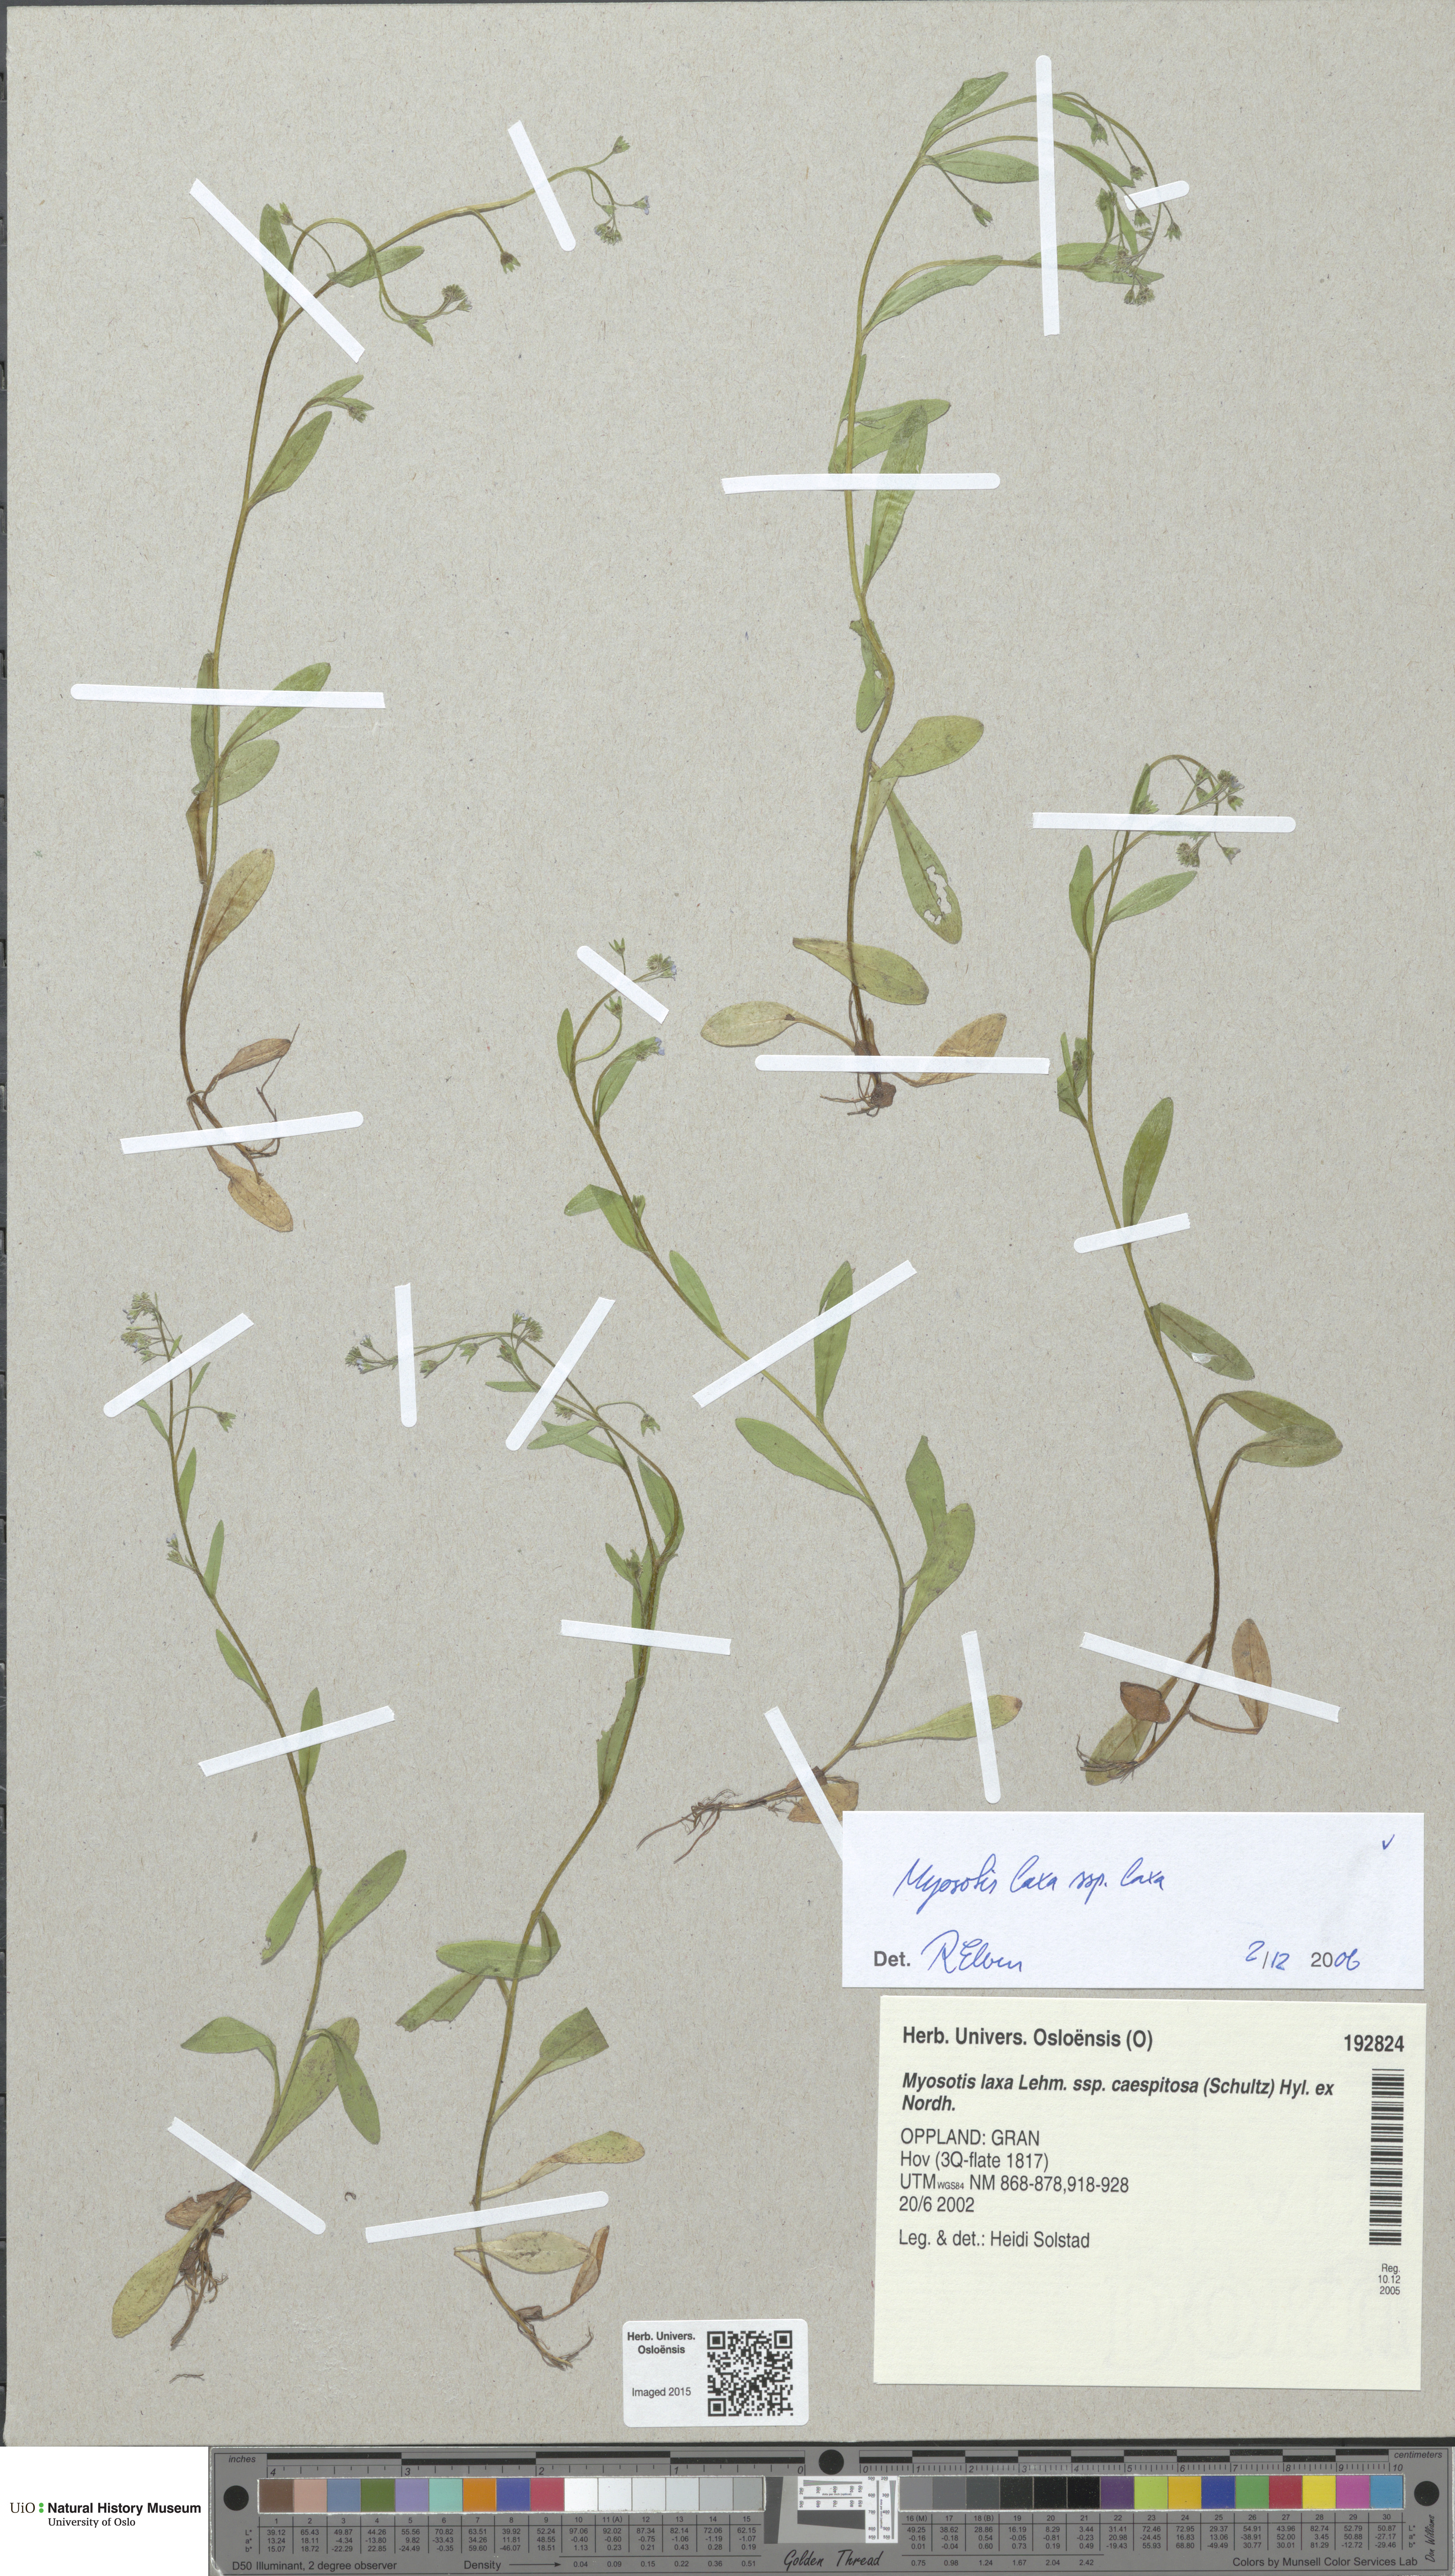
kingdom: Plantae
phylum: Tracheophyta
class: Magnoliopsida
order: Boraginales
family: Boraginaceae
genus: Myosotis
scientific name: Myosotis laxa
